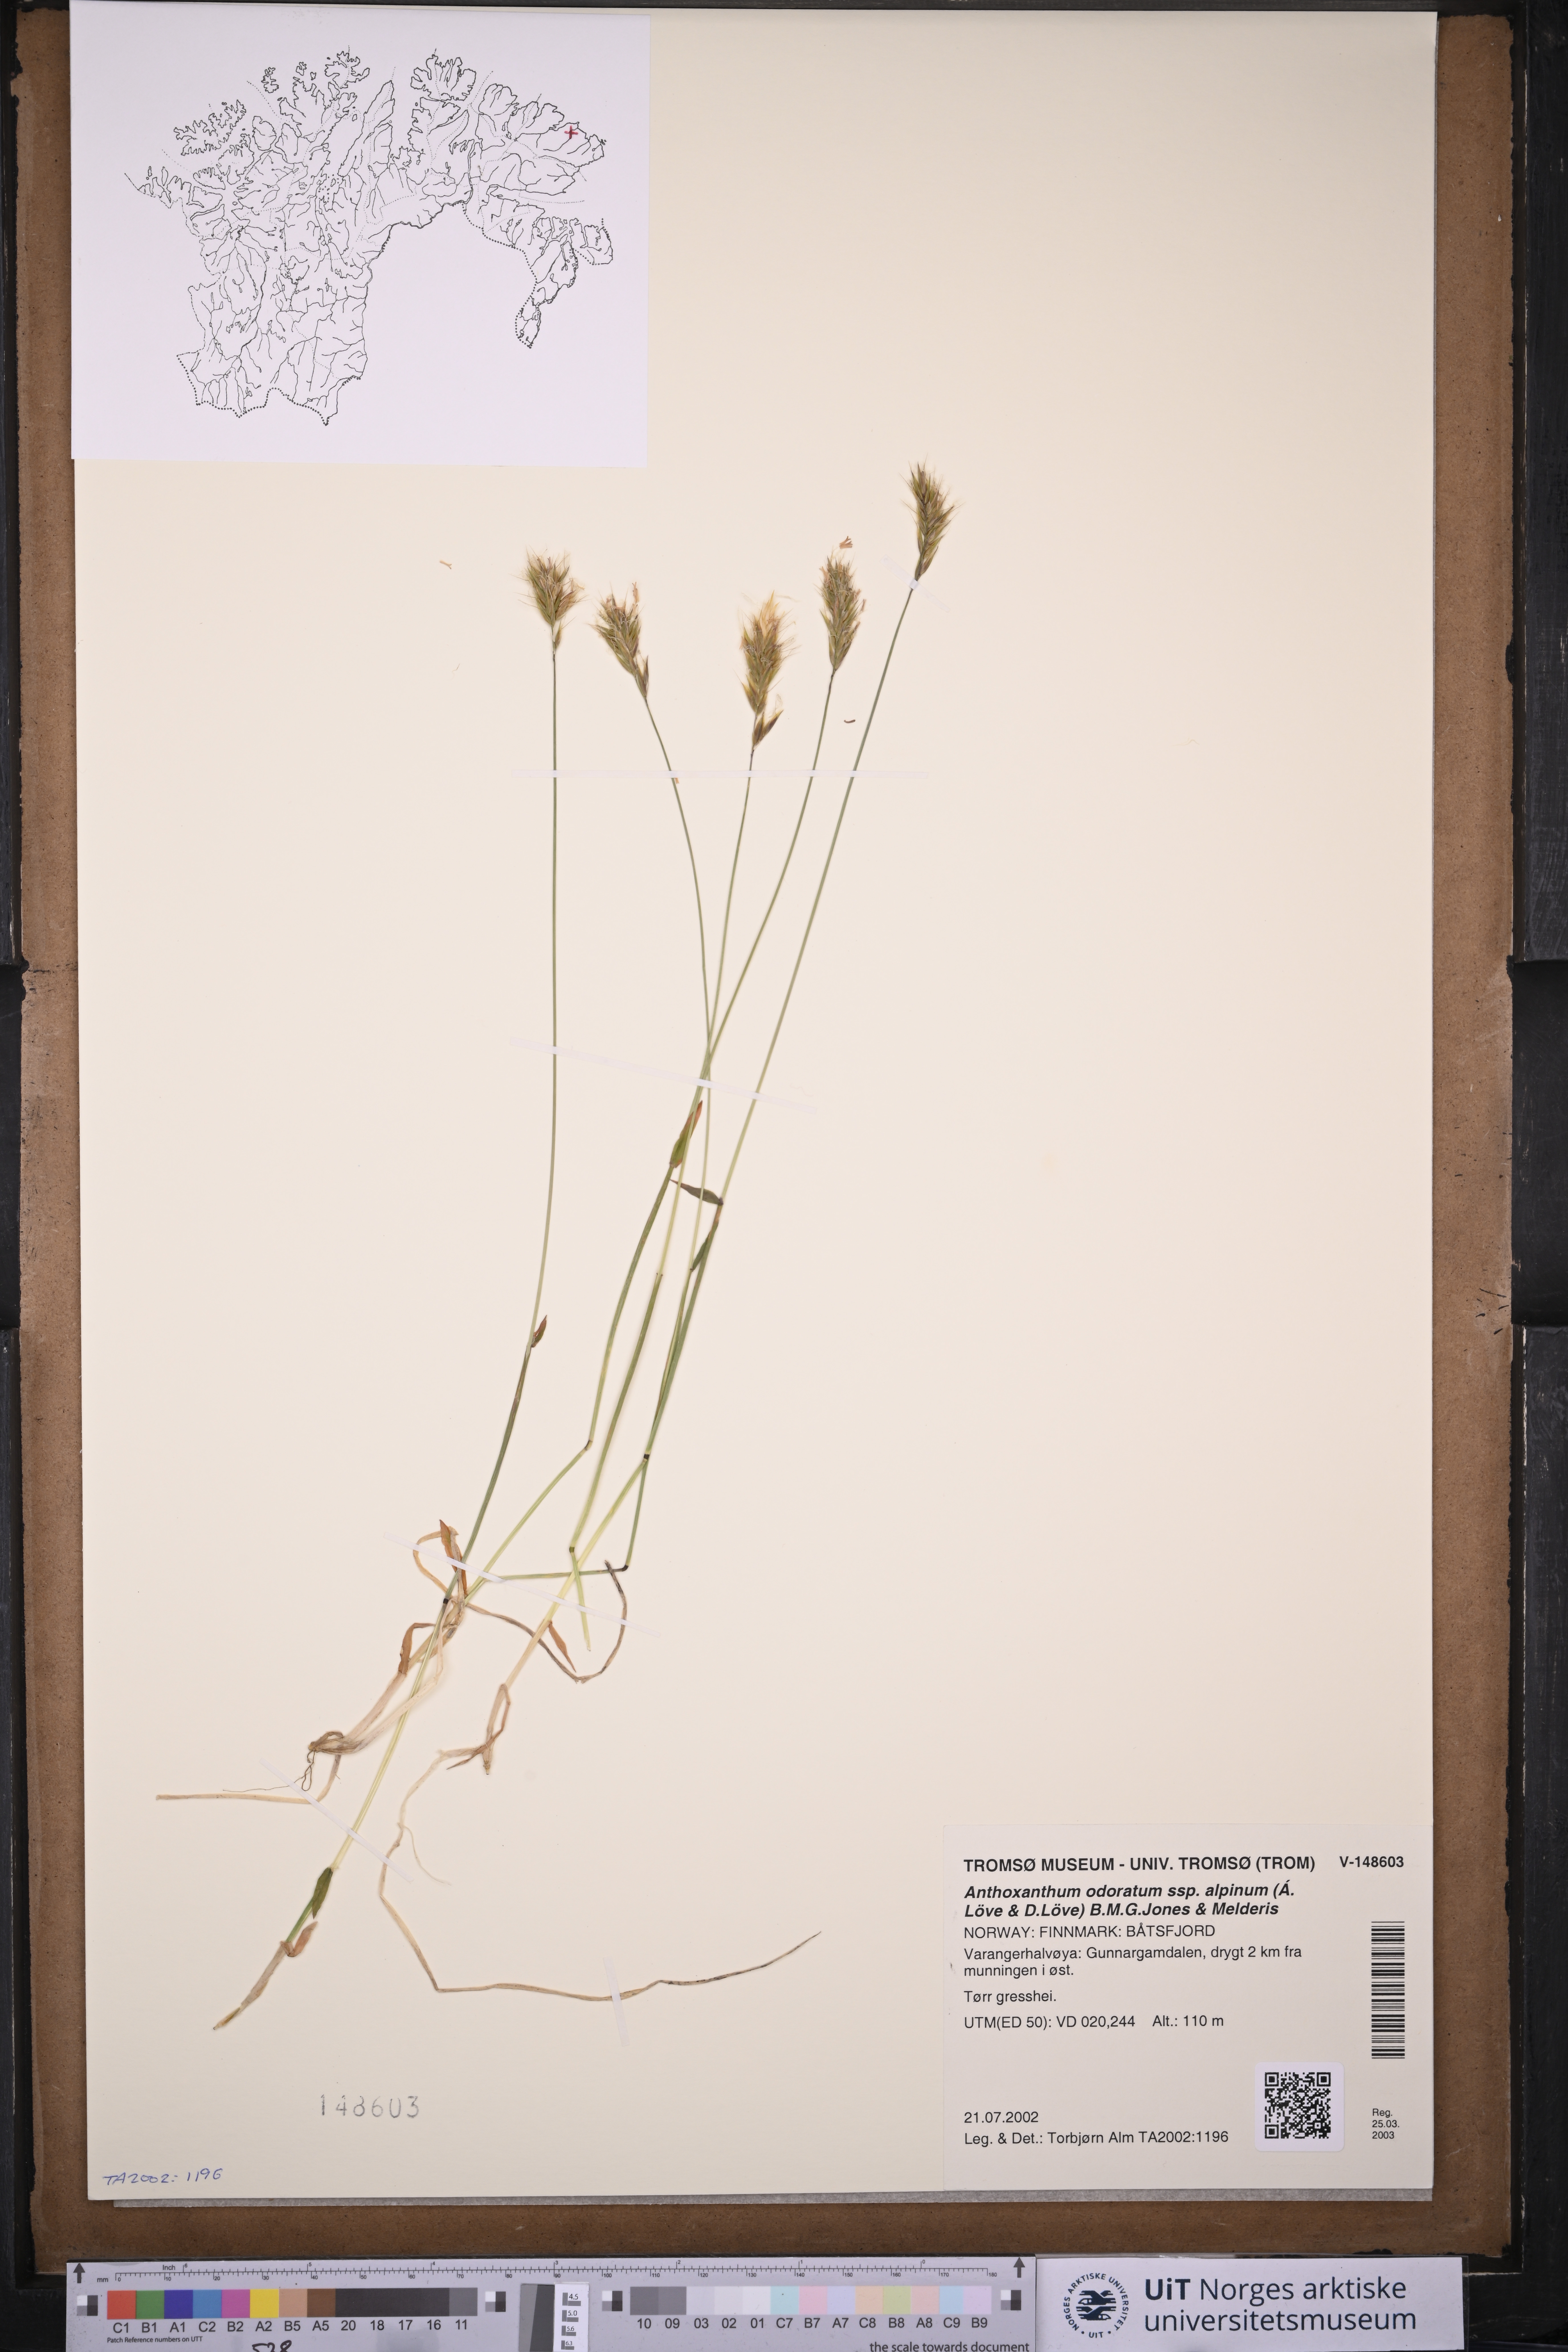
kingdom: Plantae
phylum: Tracheophyta
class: Liliopsida
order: Poales
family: Poaceae
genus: Anthoxanthum
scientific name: Anthoxanthum nipponicum
